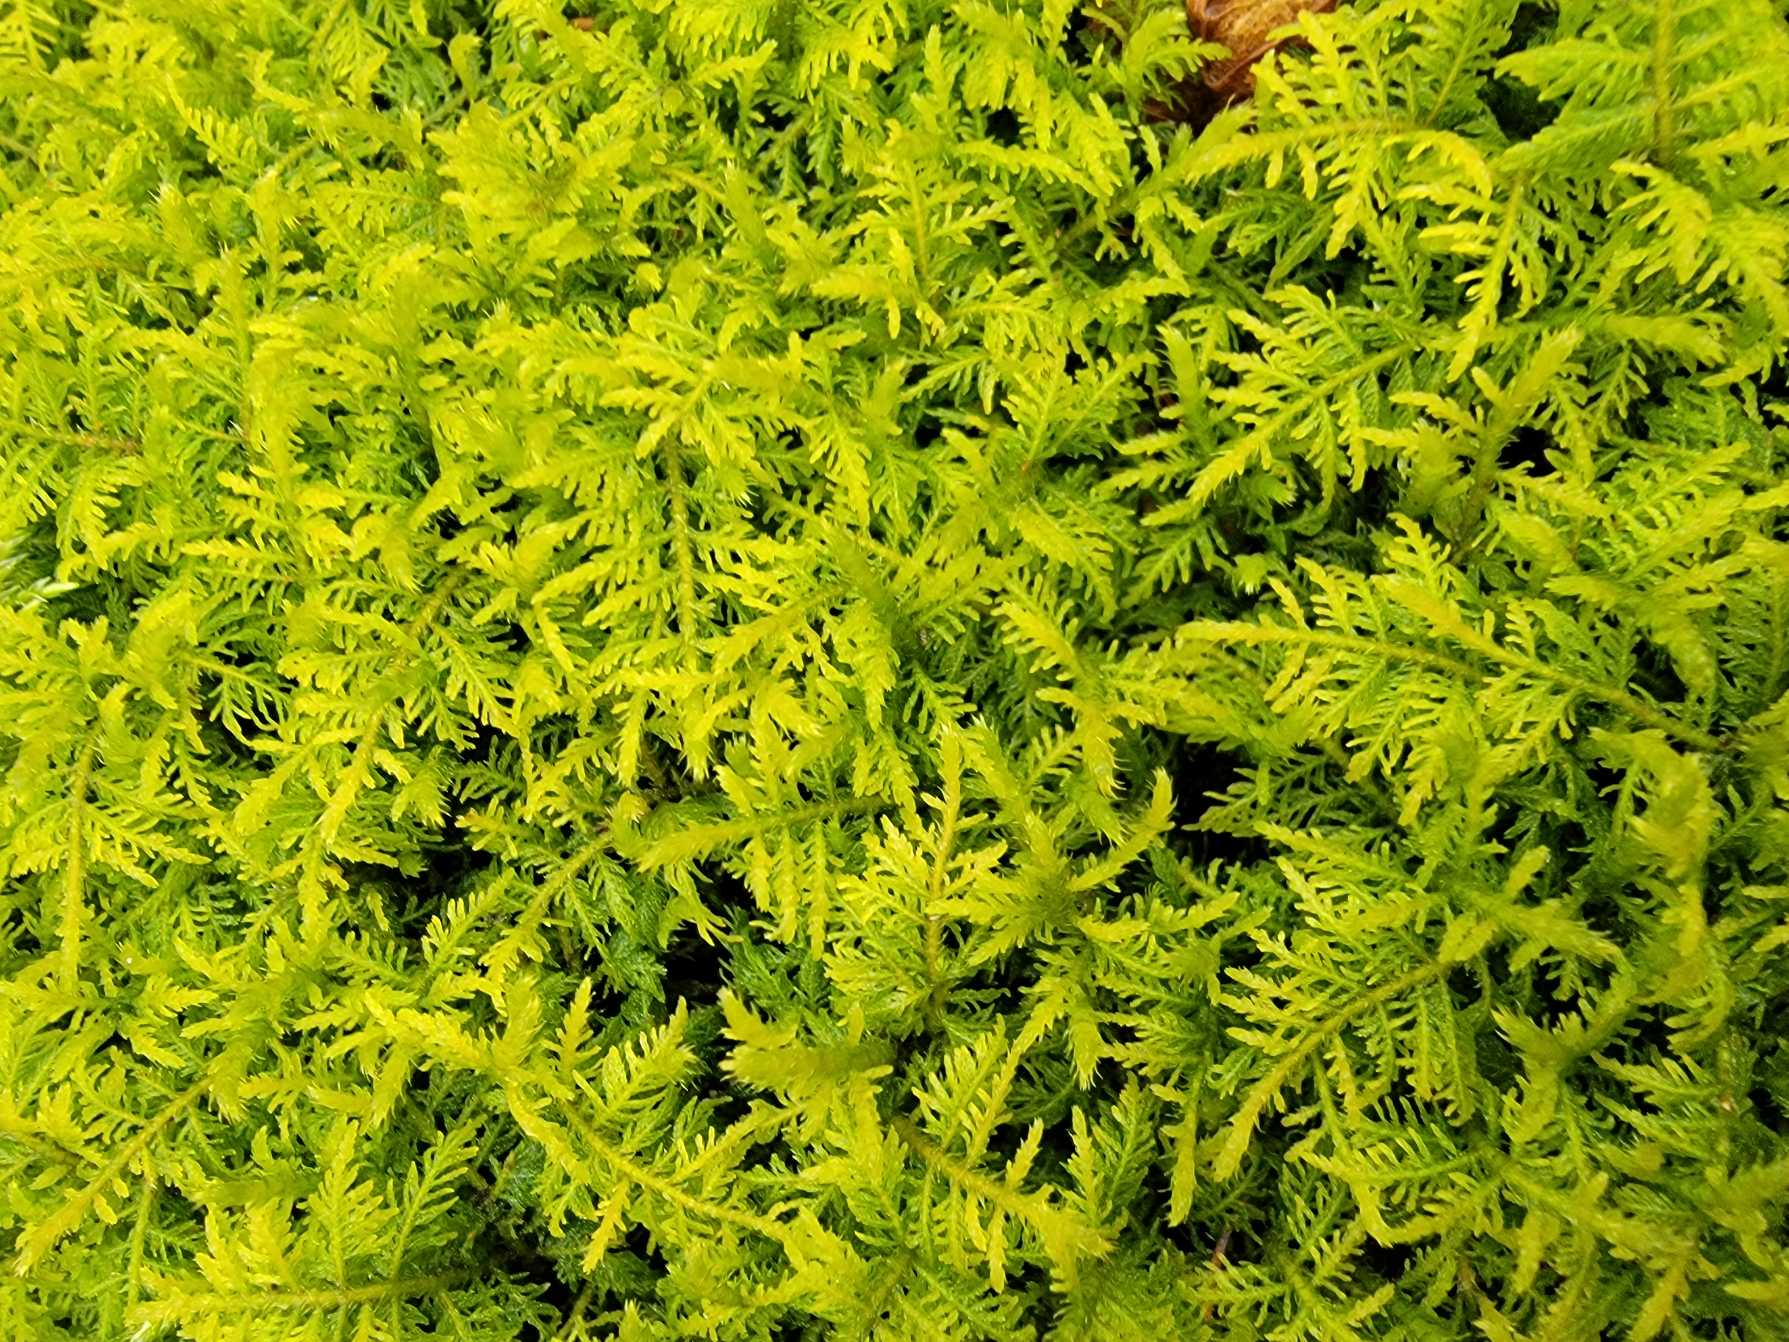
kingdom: Plantae
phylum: Bryophyta
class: Bryopsida
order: Hypnales
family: Thuidiaceae
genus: Thuidium
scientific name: Thuidium delicatulum
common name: Fingrenet bregnemos
